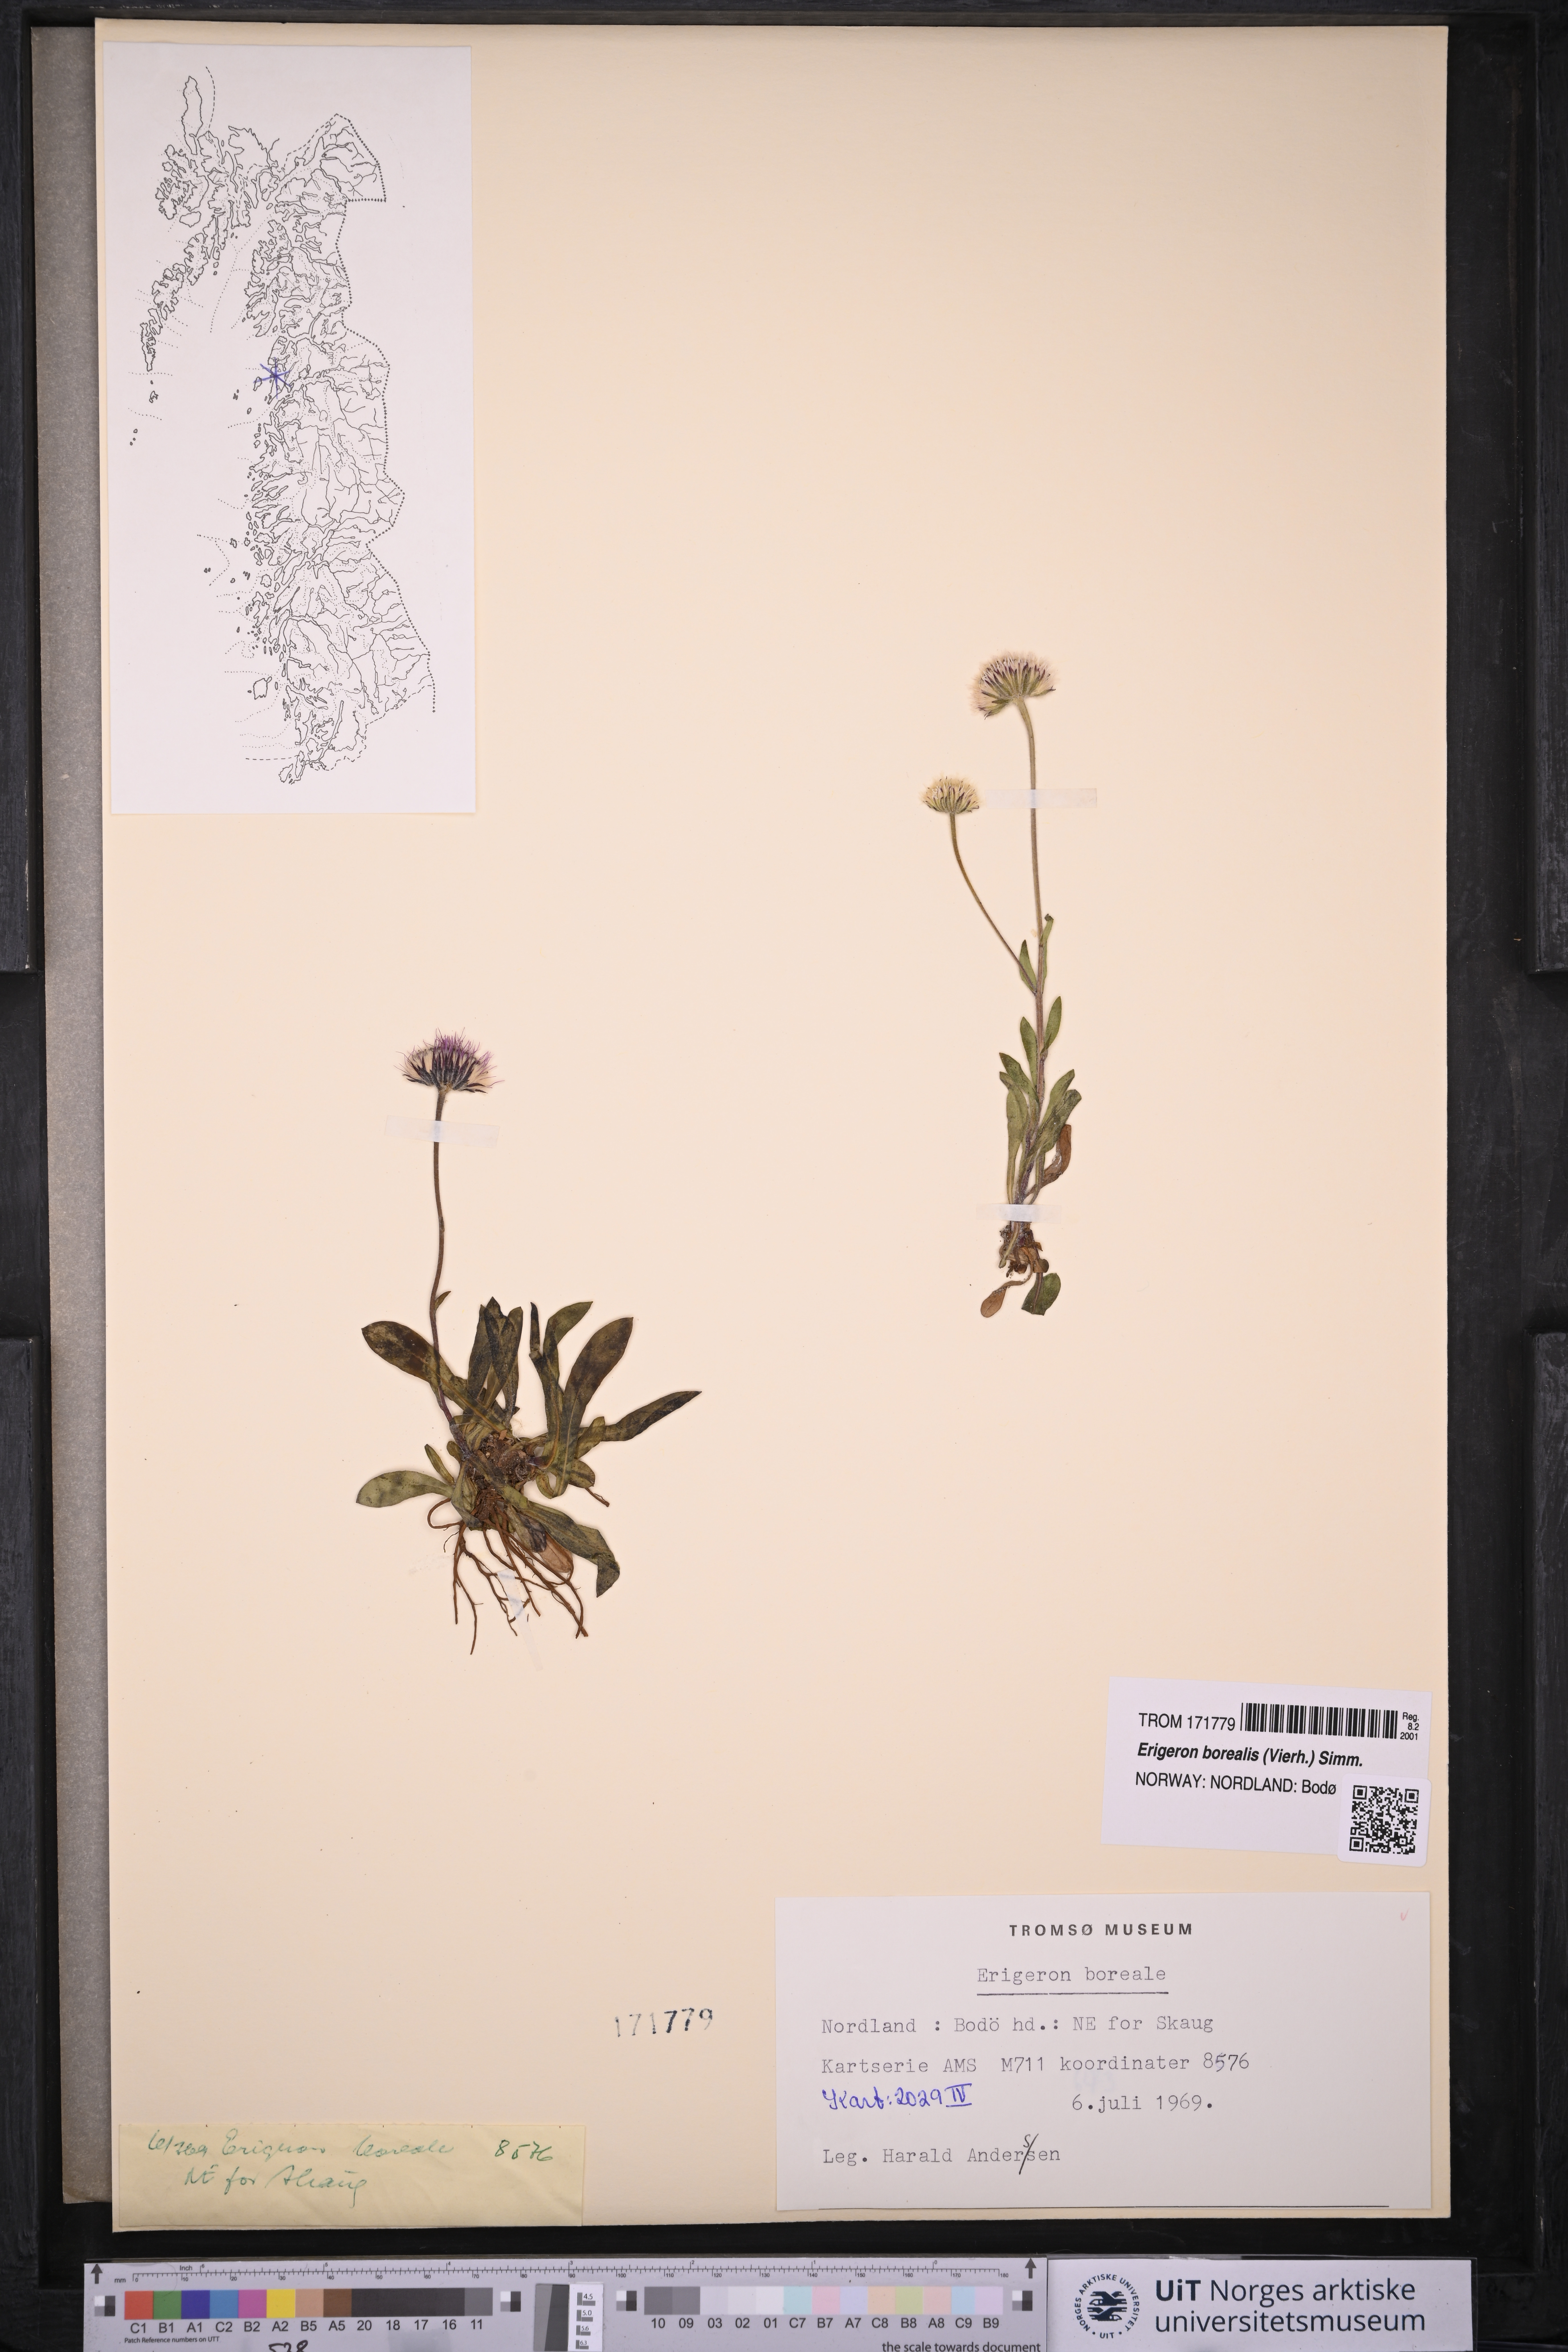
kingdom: Plantae
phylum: Tracheophyta
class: Magnoliopsida
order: Asterales
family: Asteraceae
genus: Erigeron
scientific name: Erigeron borealis
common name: Alpine fleabane
